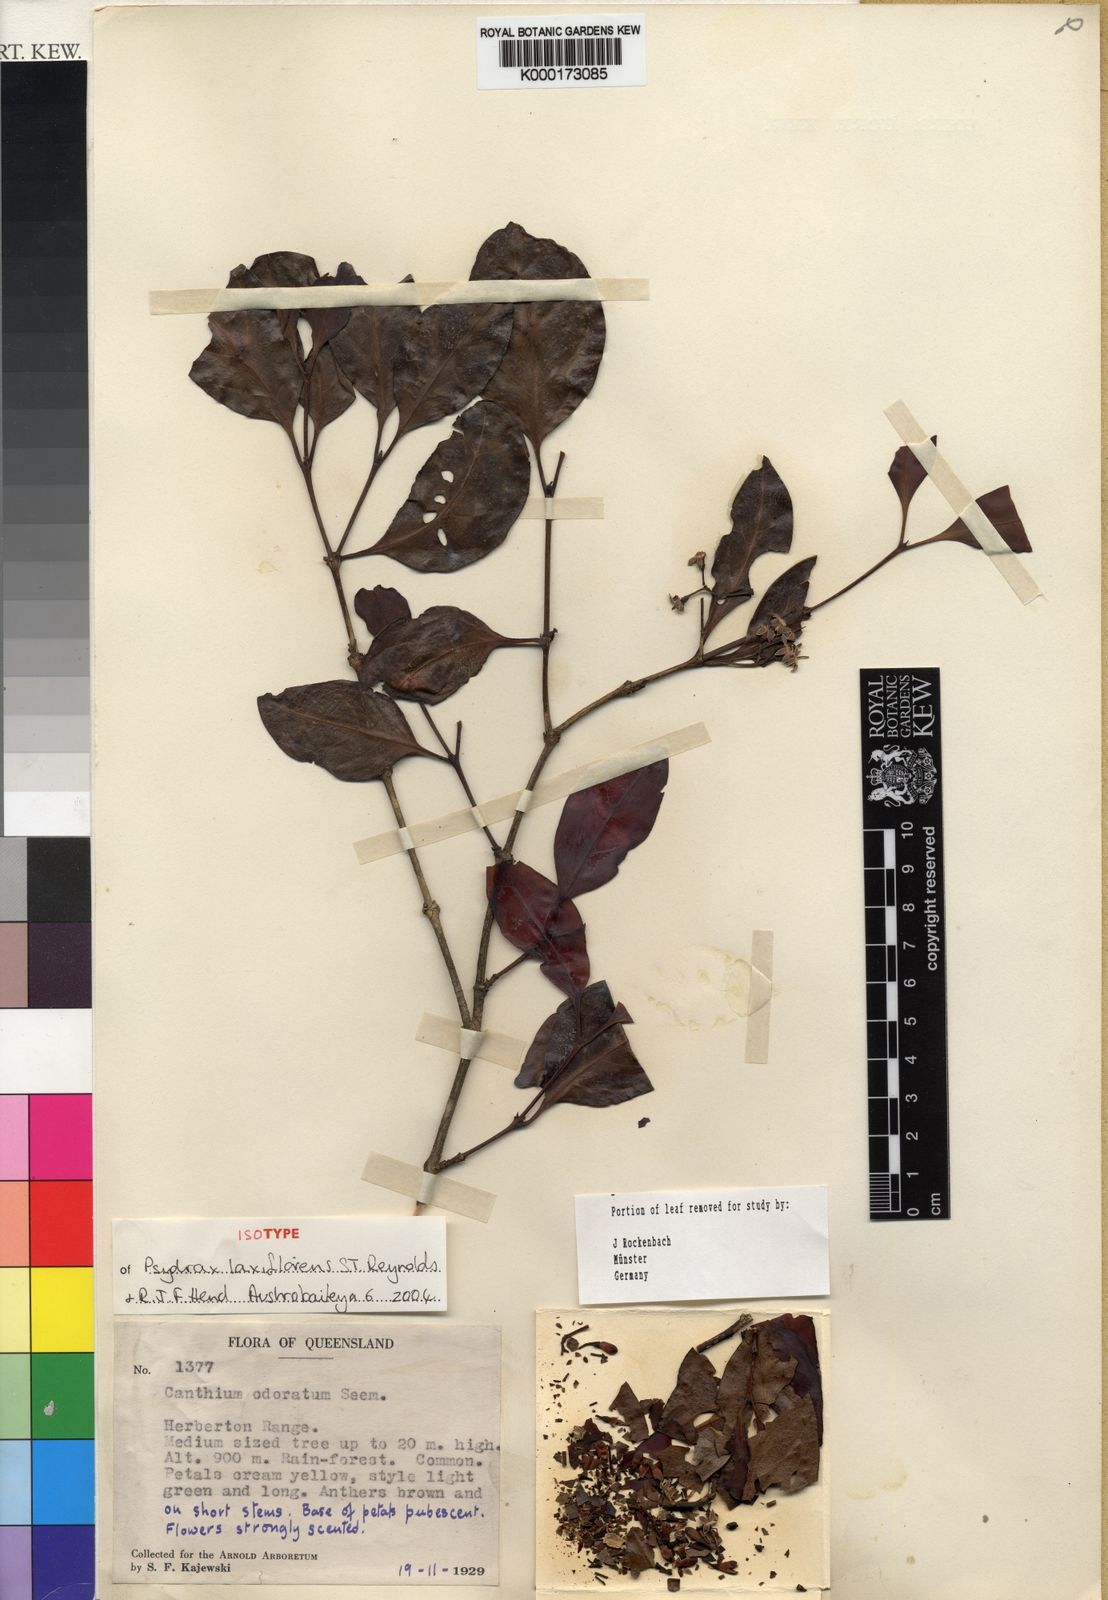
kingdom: Plantae
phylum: Tracheophyta
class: Magnoliopsida
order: Gentianales
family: Rubiaceae
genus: Psydrax
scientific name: Psydrax laxiflorens
